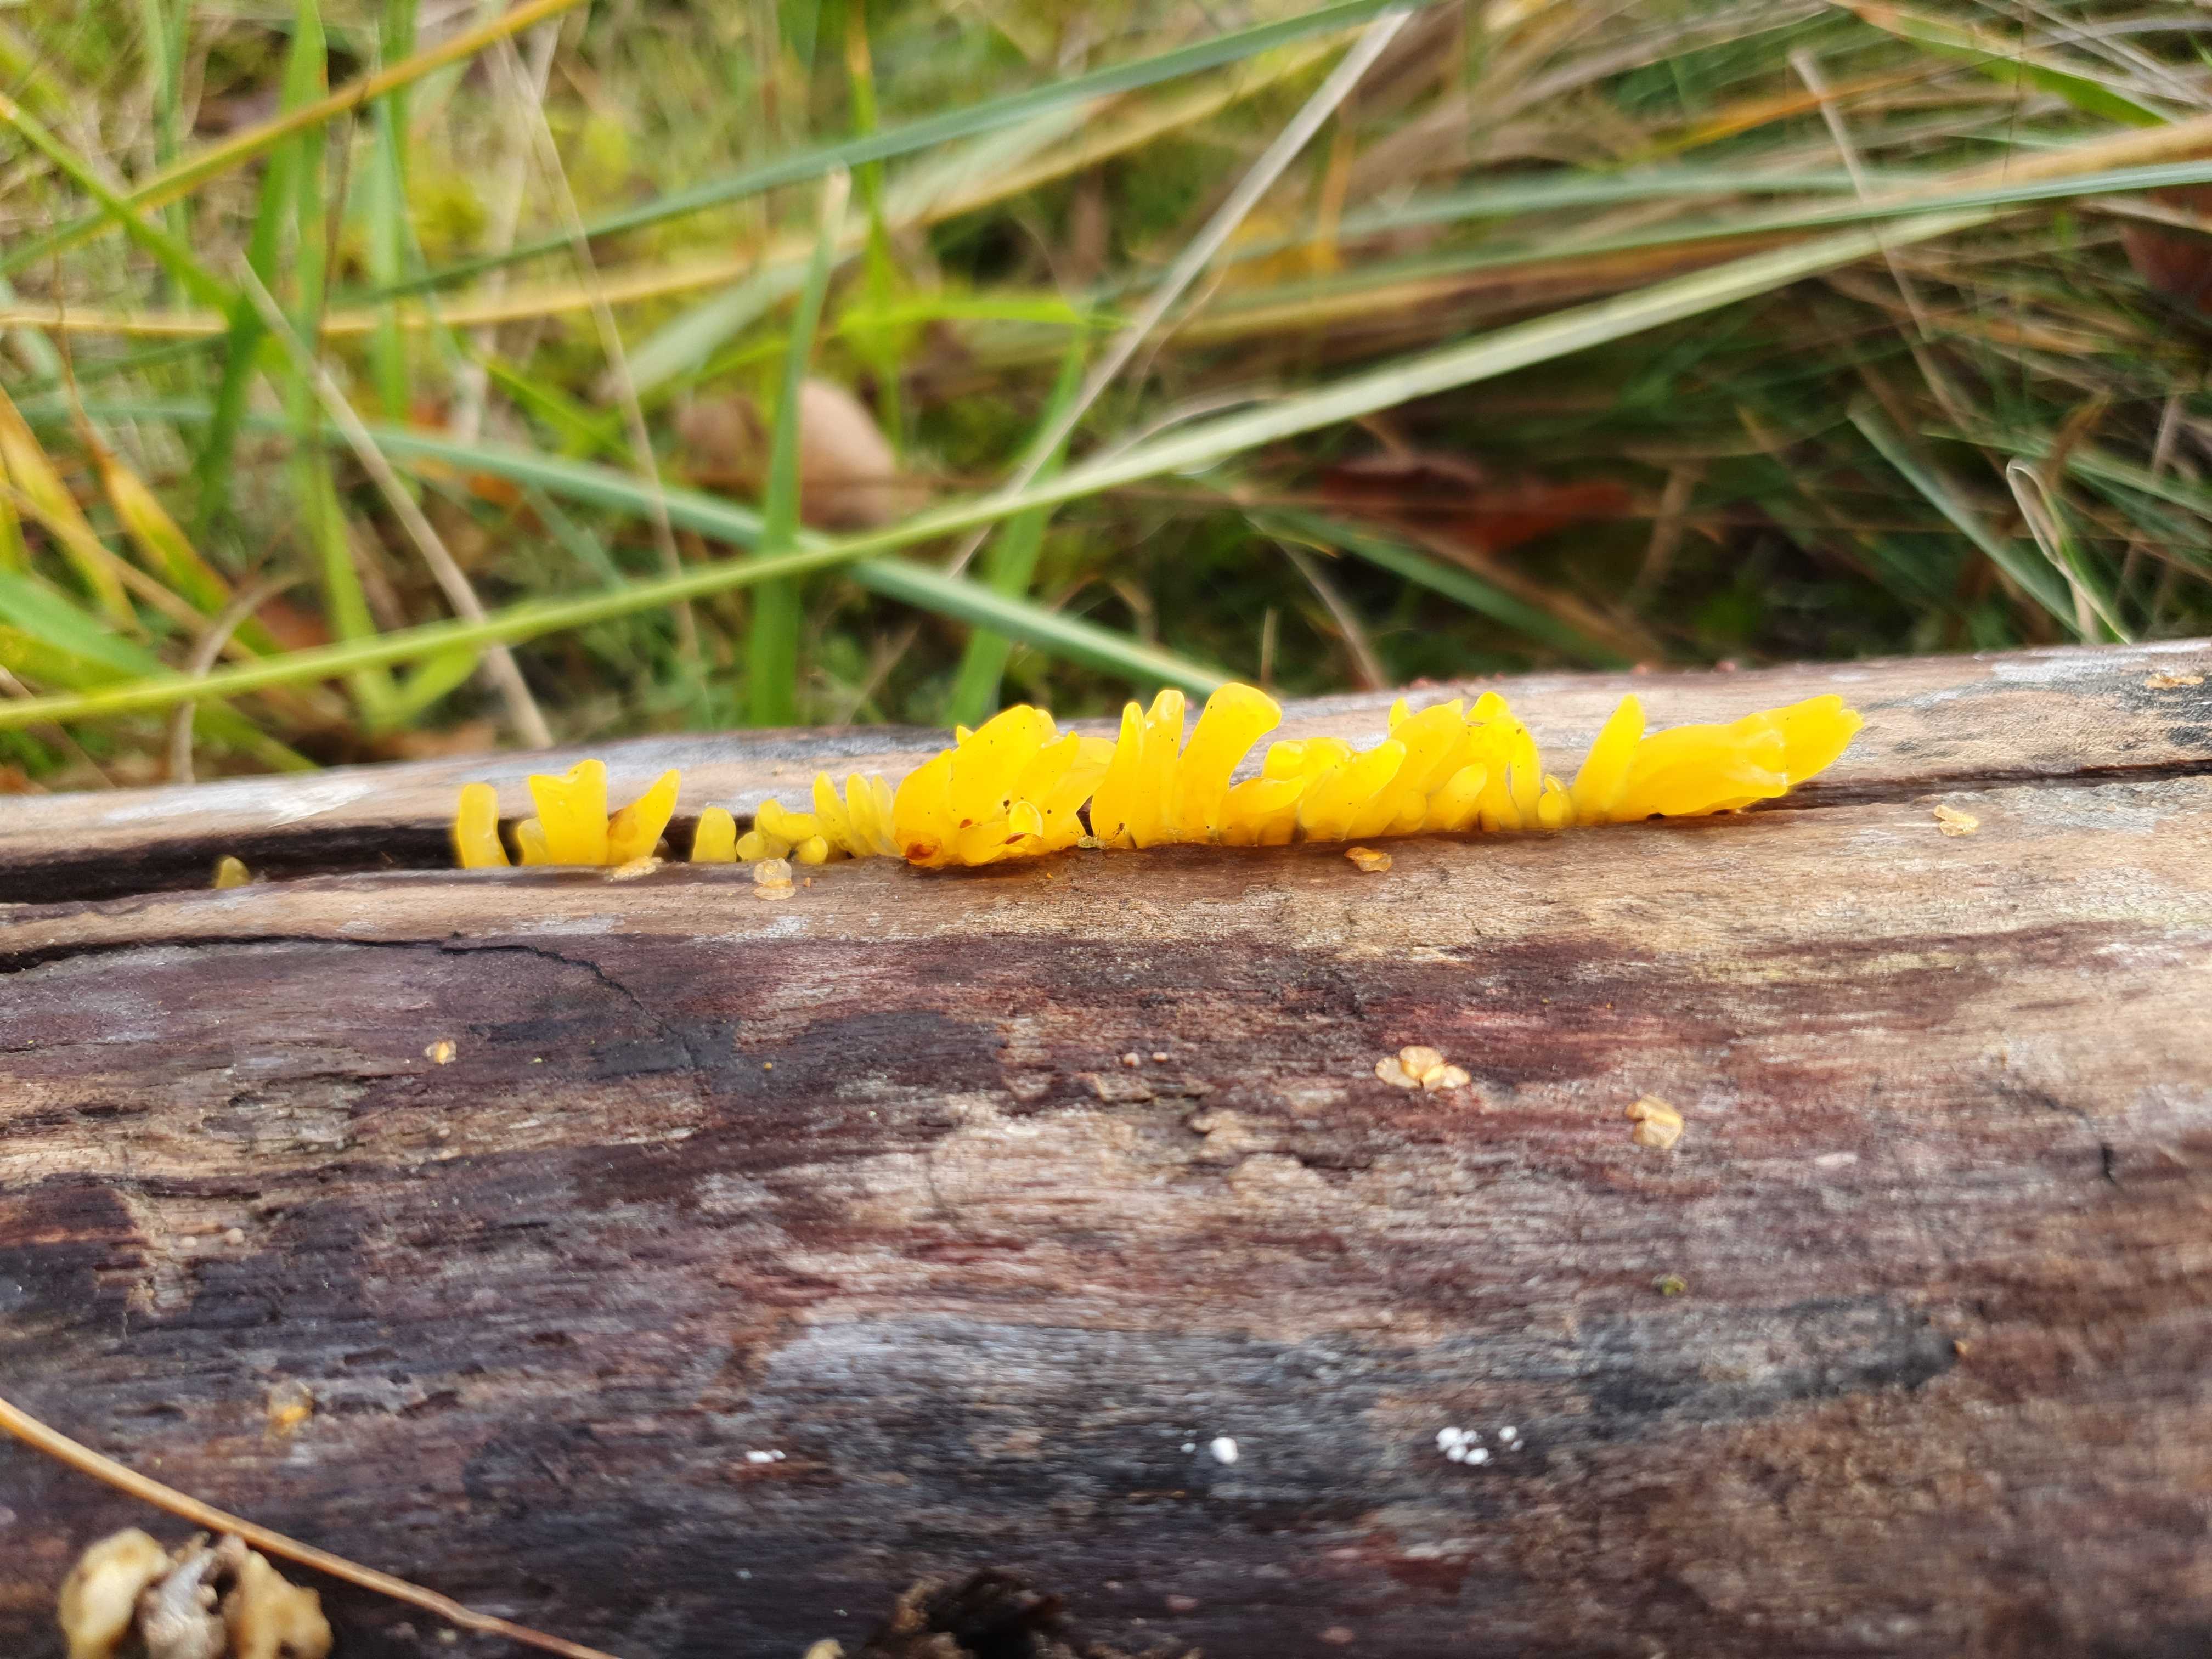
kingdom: Fungi
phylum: Basidiomycota
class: Dacrymycetes
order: Dacrymycetales
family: Dacrymycetaceae
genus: Calocera
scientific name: Calocera furcata
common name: fyrre-guldgaffel
